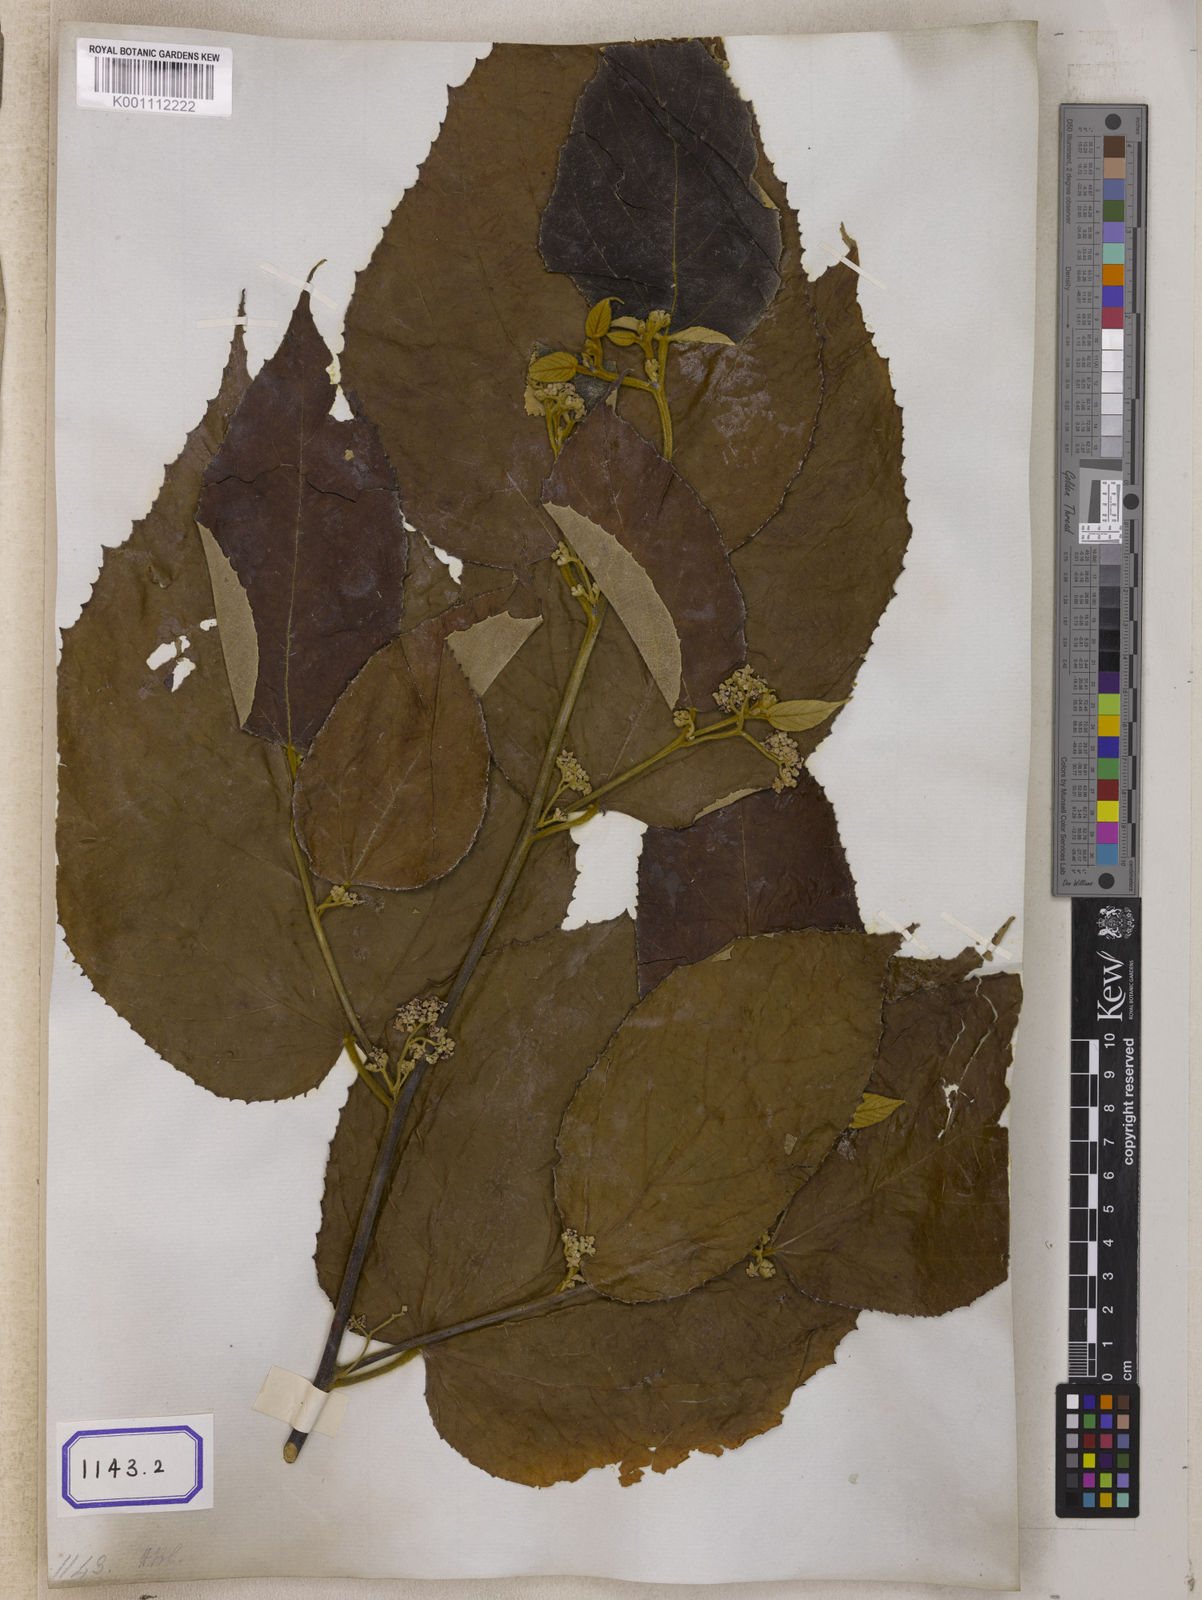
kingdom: Plantae
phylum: Tracheophyta
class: Magnoliopsida
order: Malvales
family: Malvaceae
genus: Commersonia
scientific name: Commersonia bartramia
